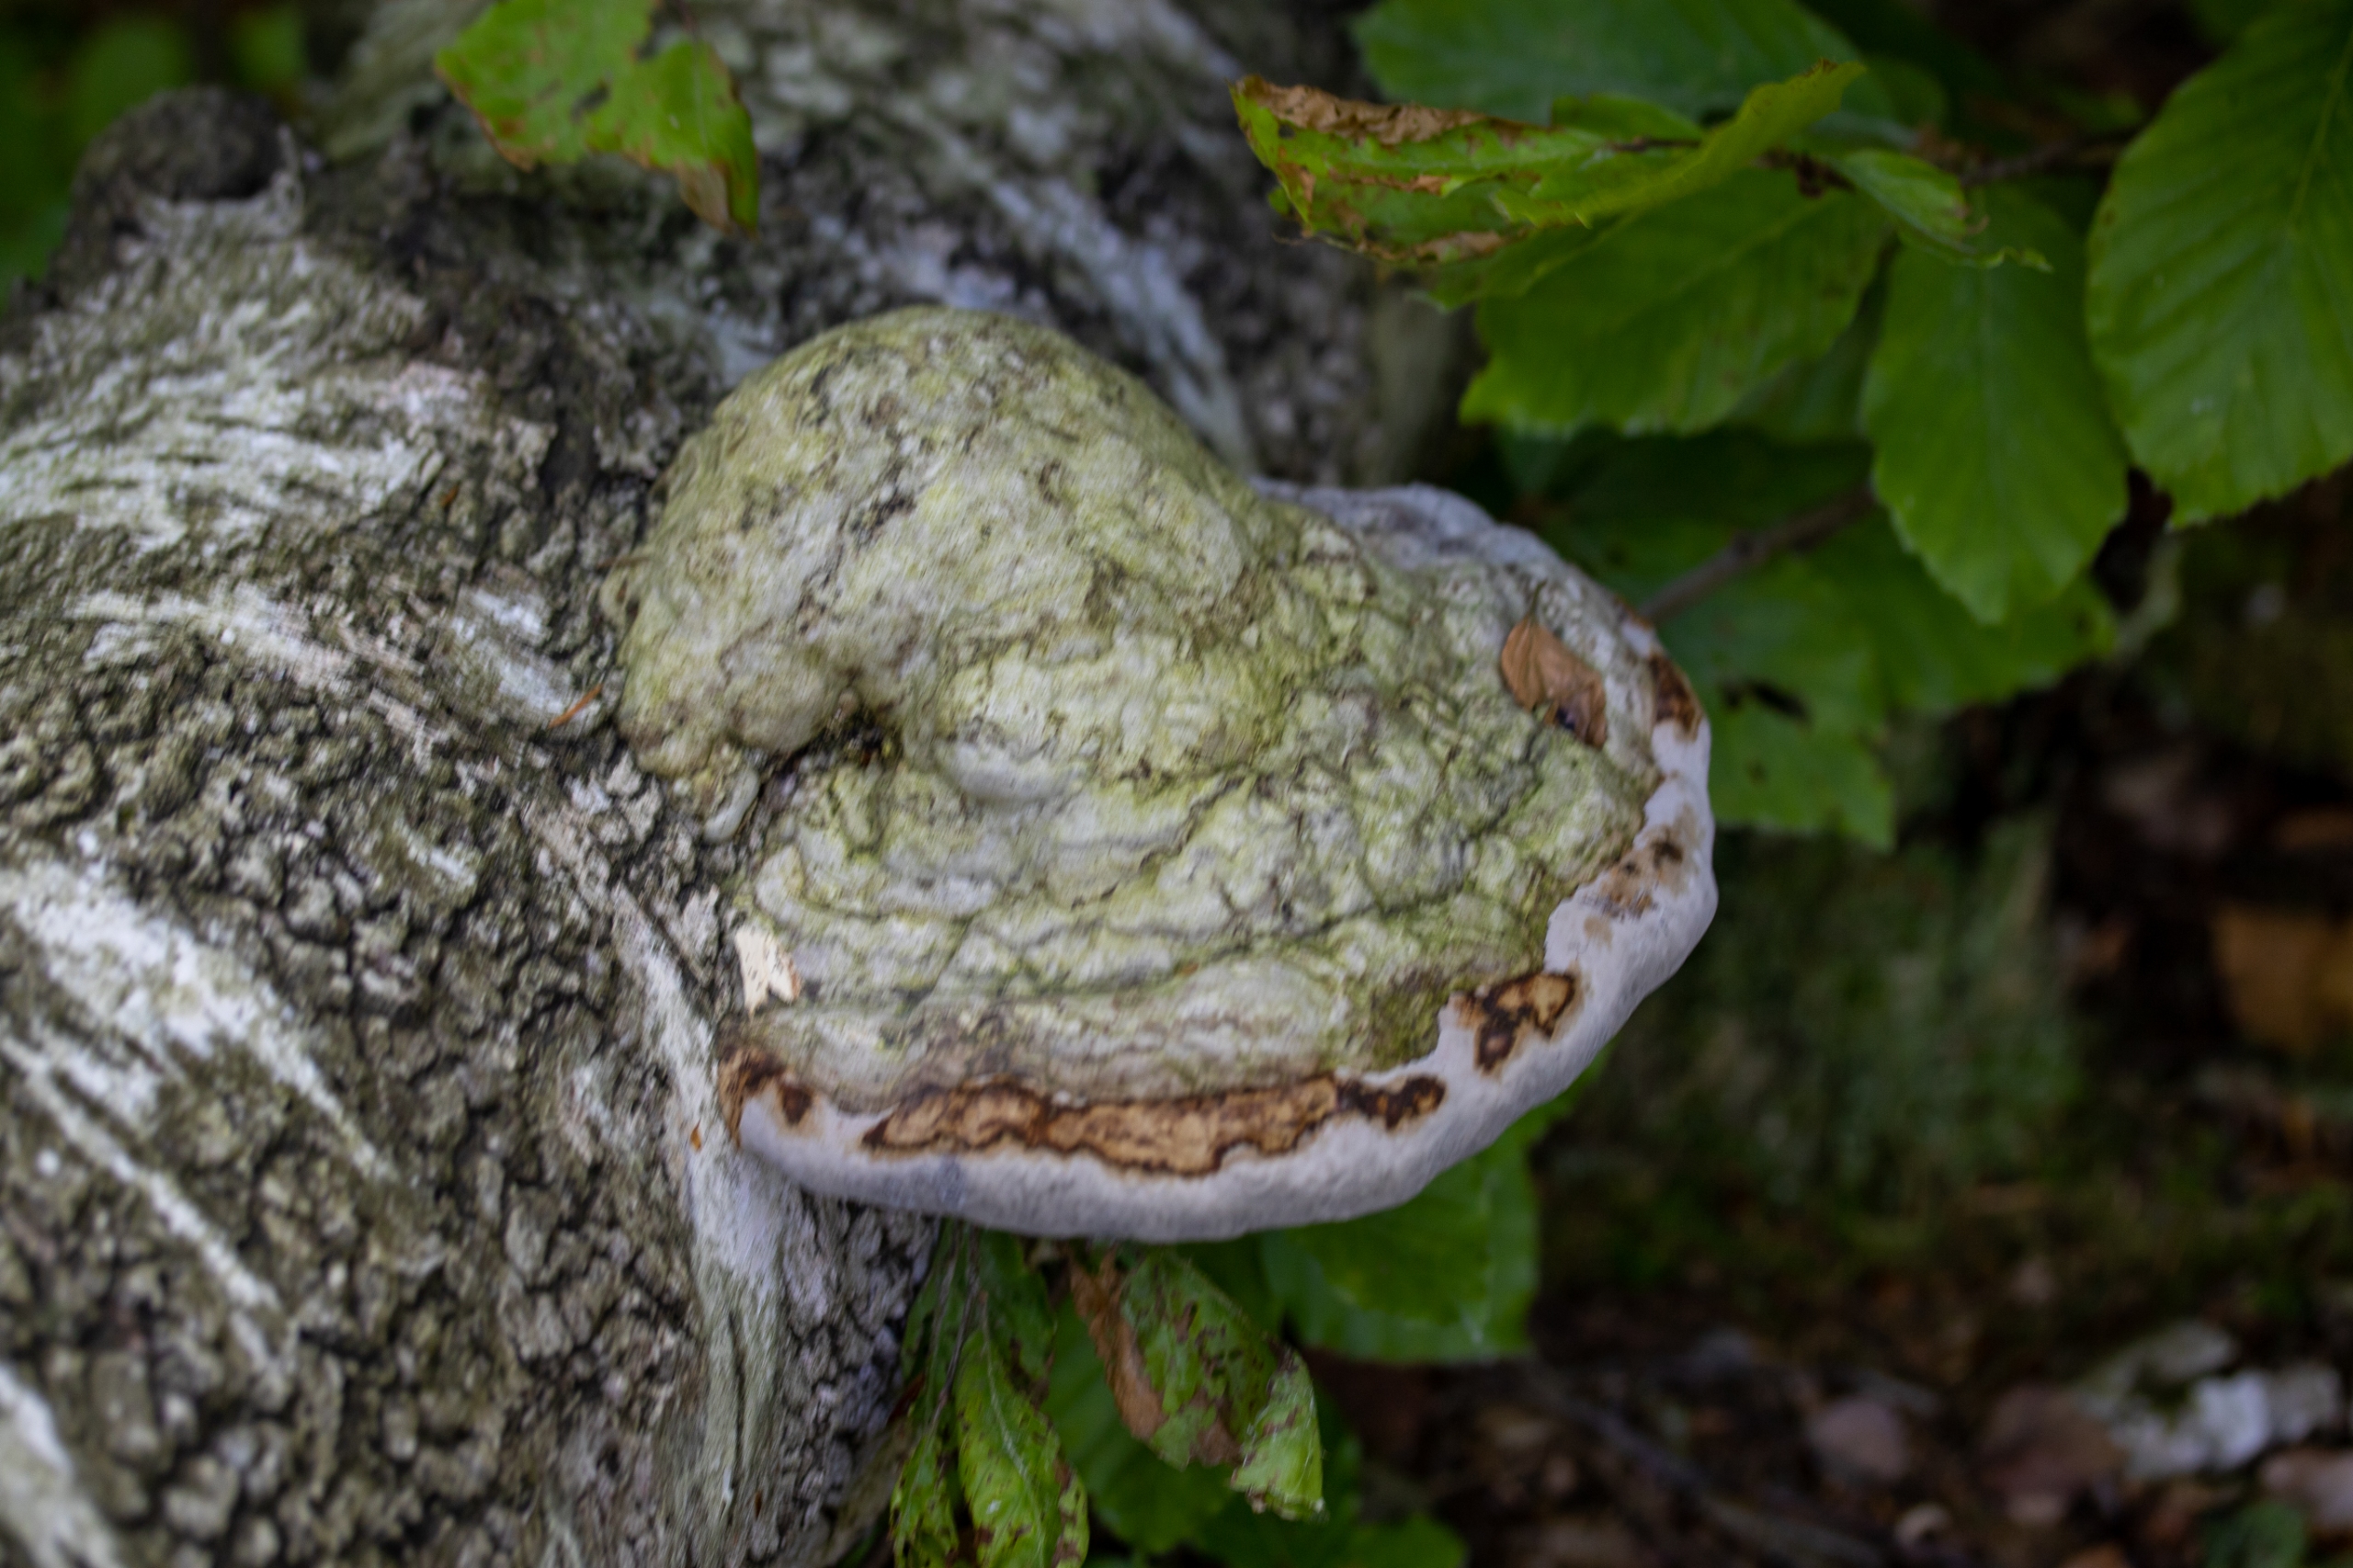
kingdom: Fungi
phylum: Basidiomycota
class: Agaricomycetes
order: Polyporales
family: Polyporaceae
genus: Fomes
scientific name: Fomes fomentarius
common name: Tøndersvamp
